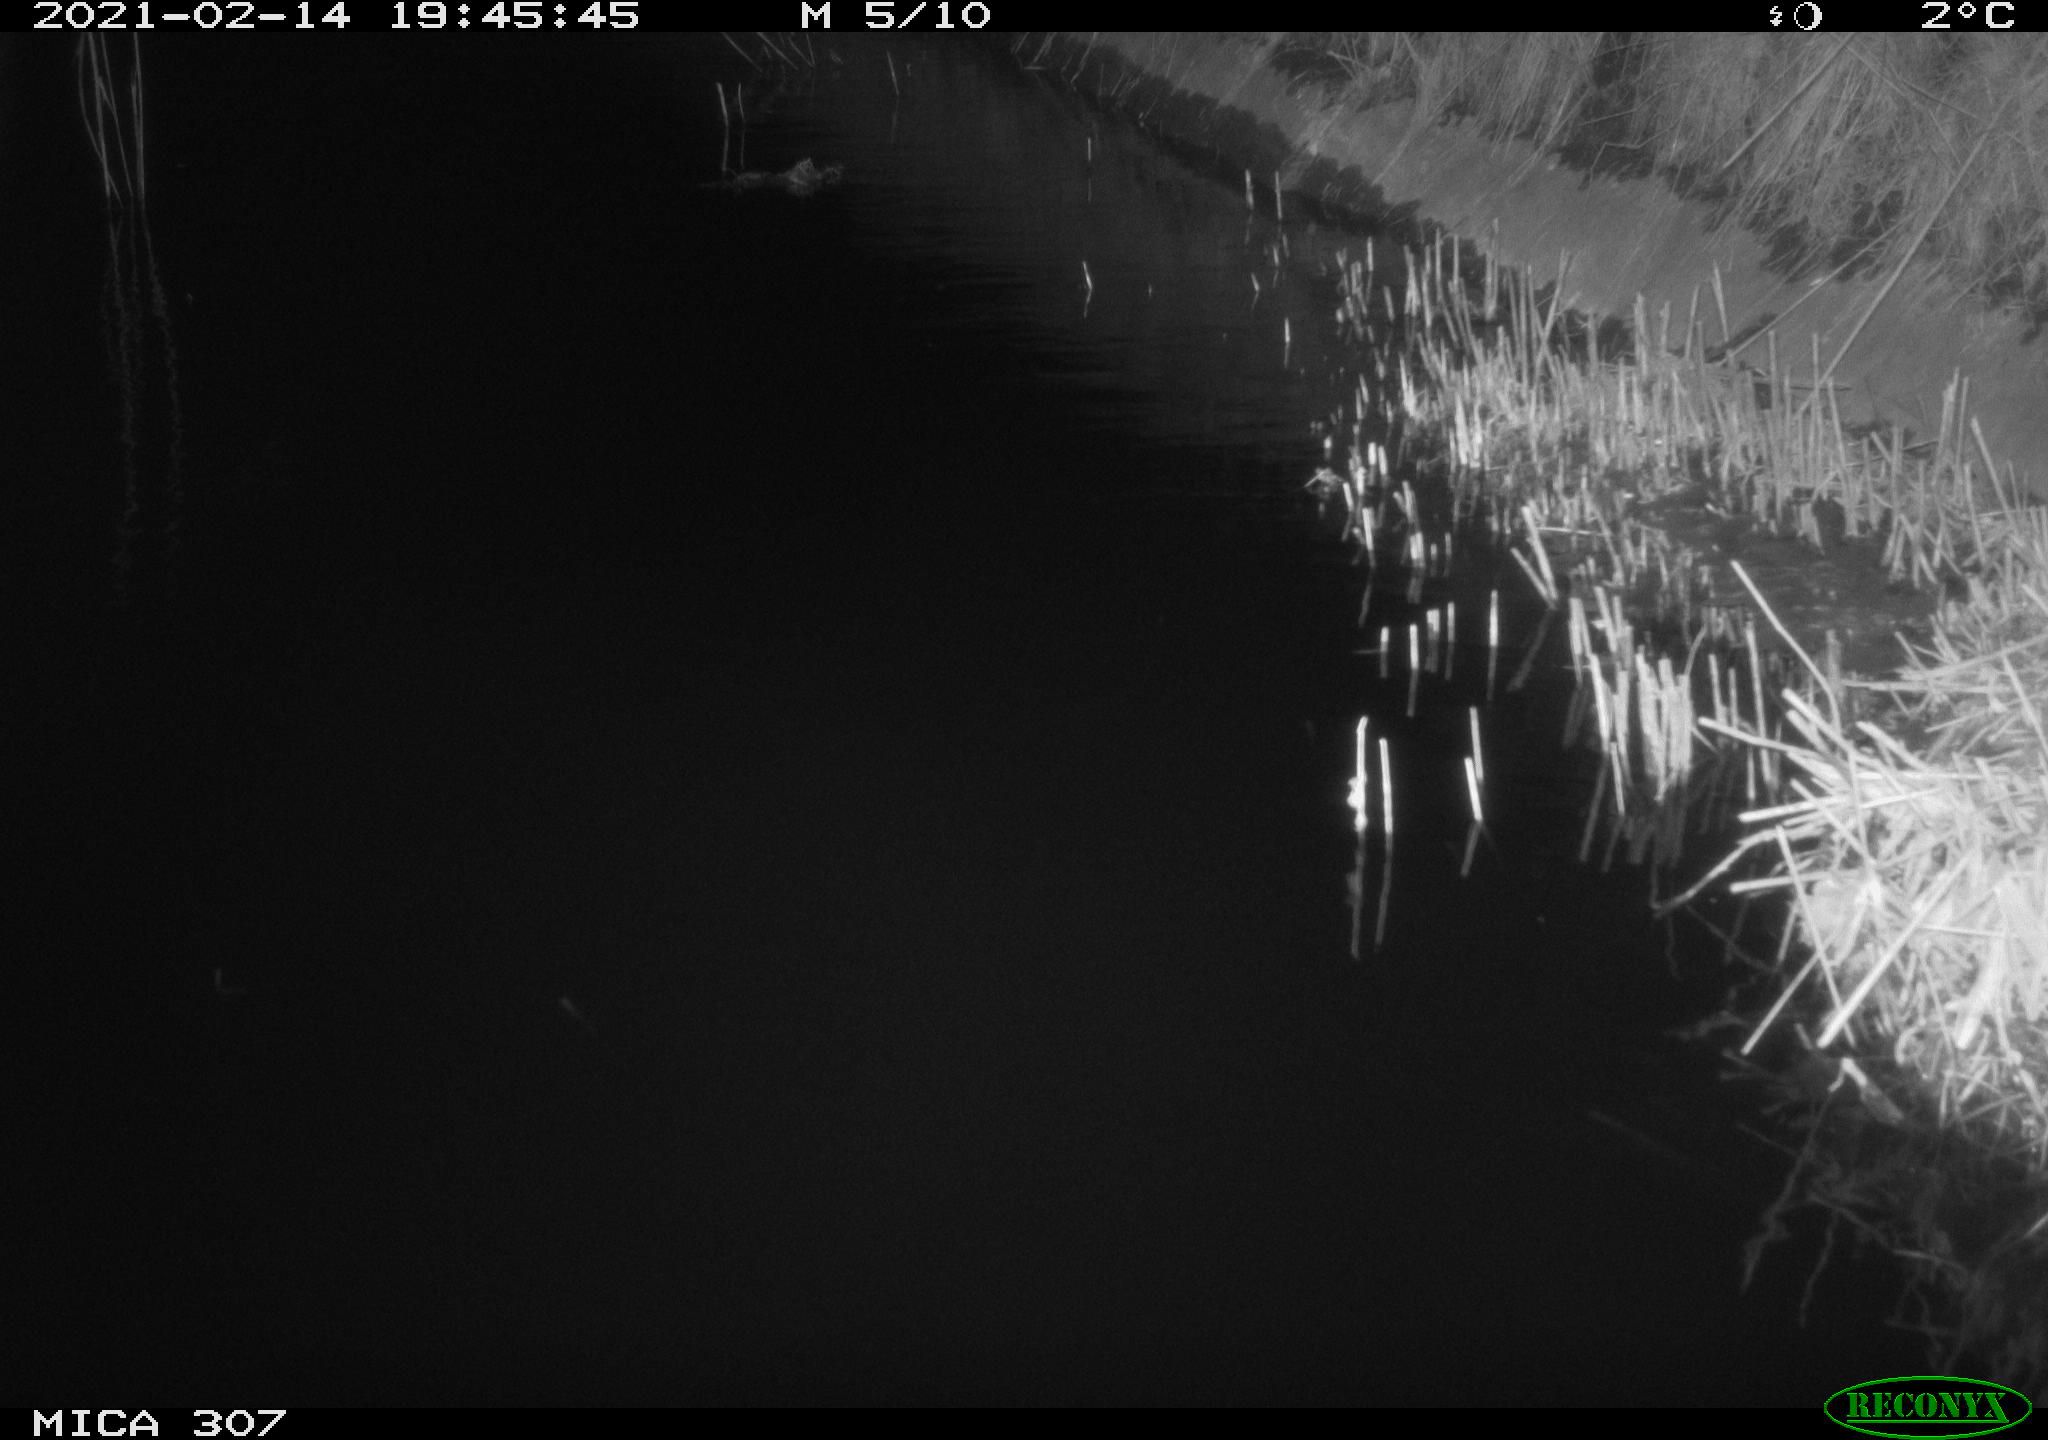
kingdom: Animalia
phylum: Chordata
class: Mammalia
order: Rodentia
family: Muridae
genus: Rattus
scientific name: Rattus norvegicus
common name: Brown rat
